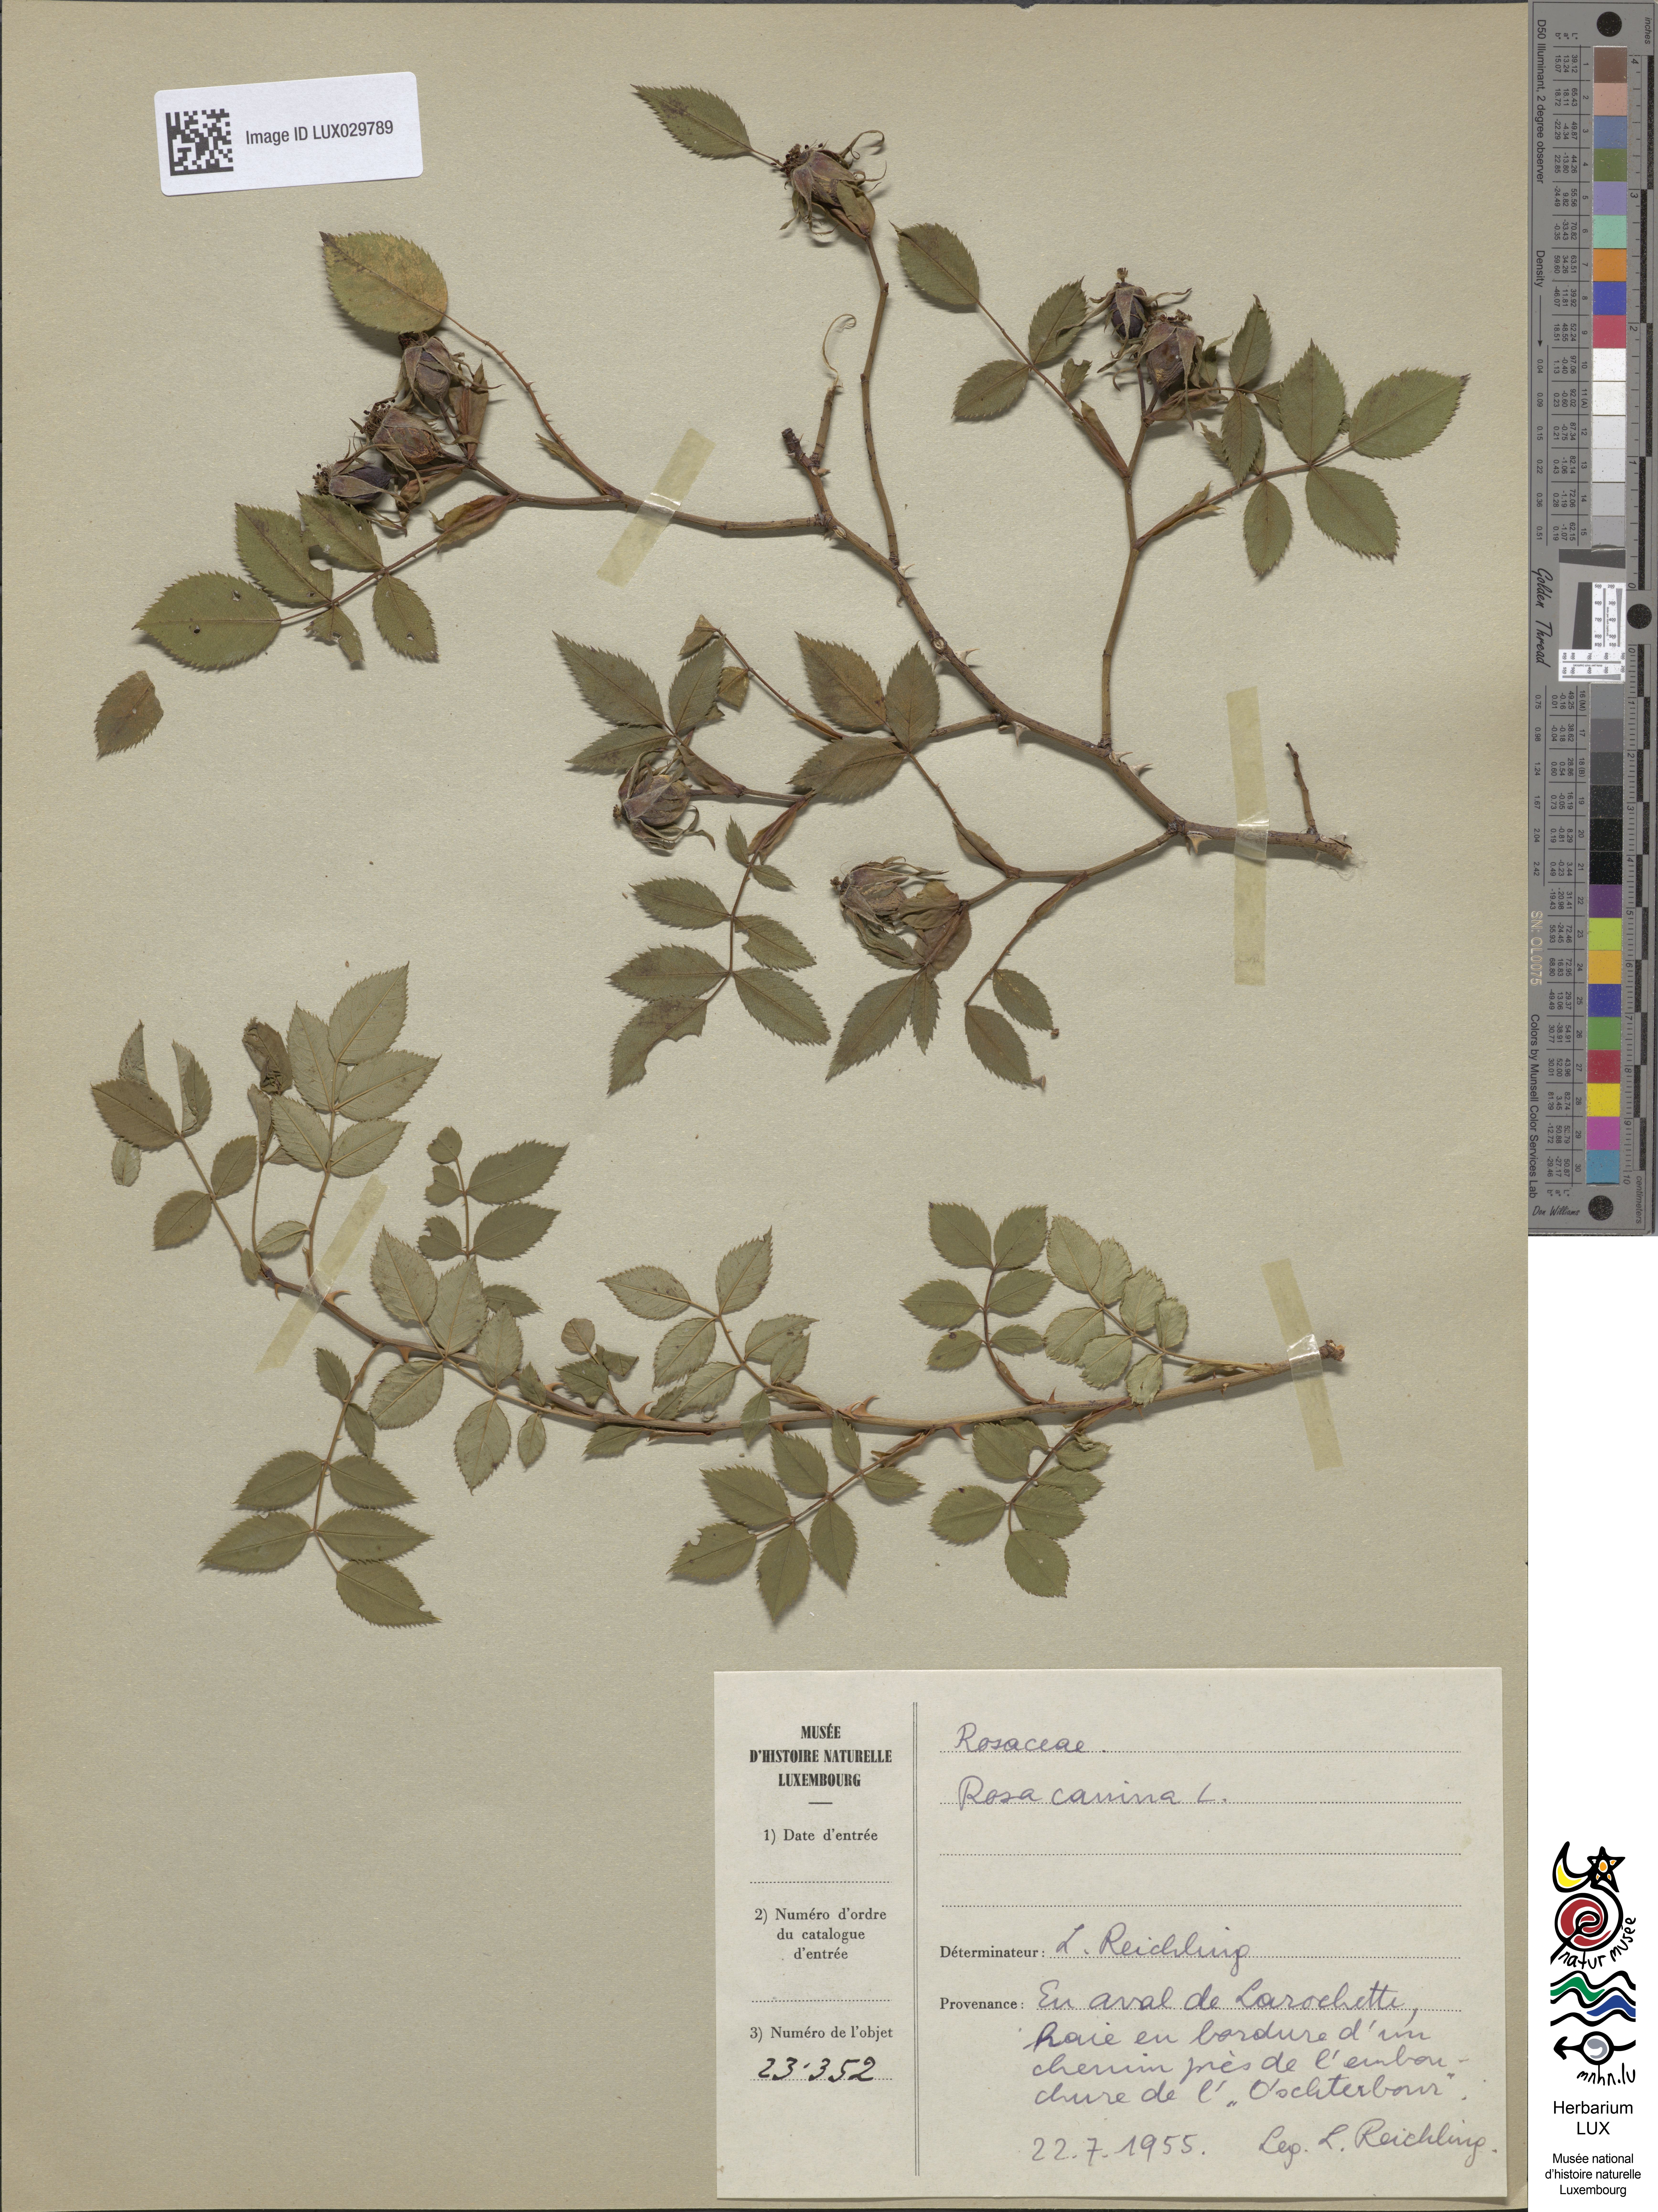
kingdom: Plantae
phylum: Tracheophyta
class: Magnoliopsida
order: Rosales
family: Rosaceae
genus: Rosa
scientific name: Rosa canina
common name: Dog rose
